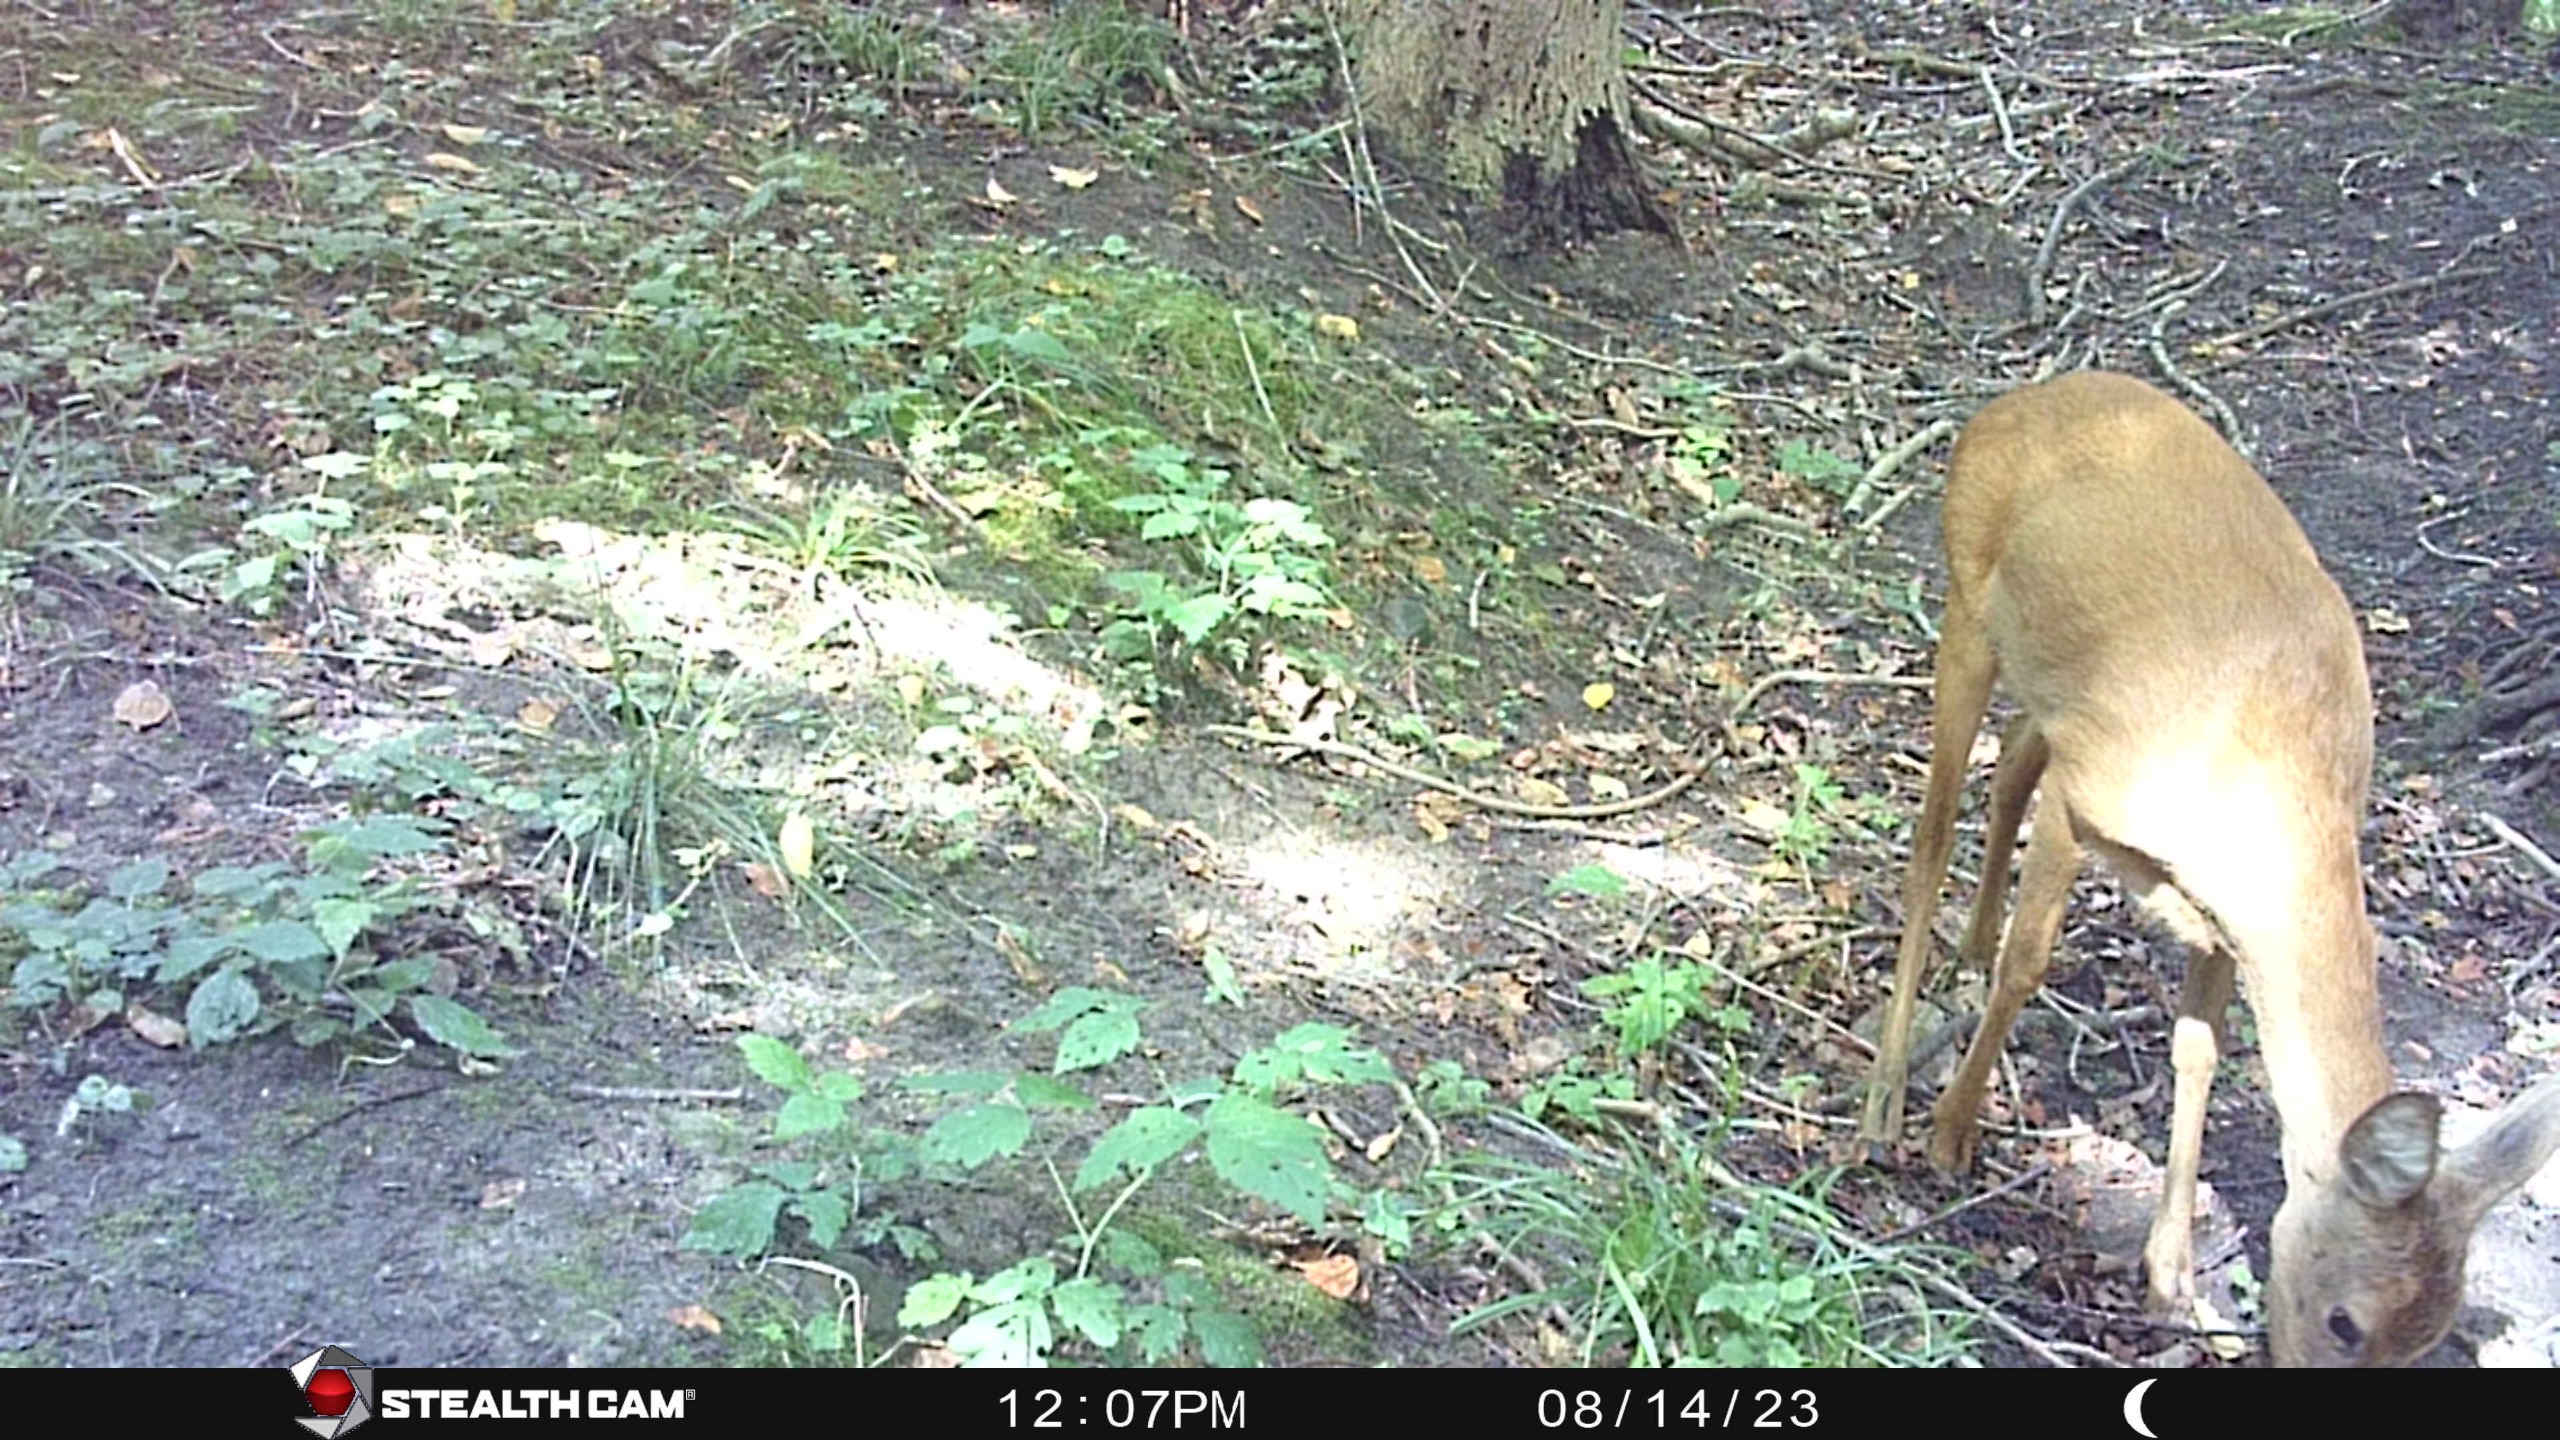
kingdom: Animalia
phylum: Chordata
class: Mammalia
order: Artiodactyla
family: Cervidae
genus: Capreolus
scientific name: Capreolus capreolus
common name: Rådyr
